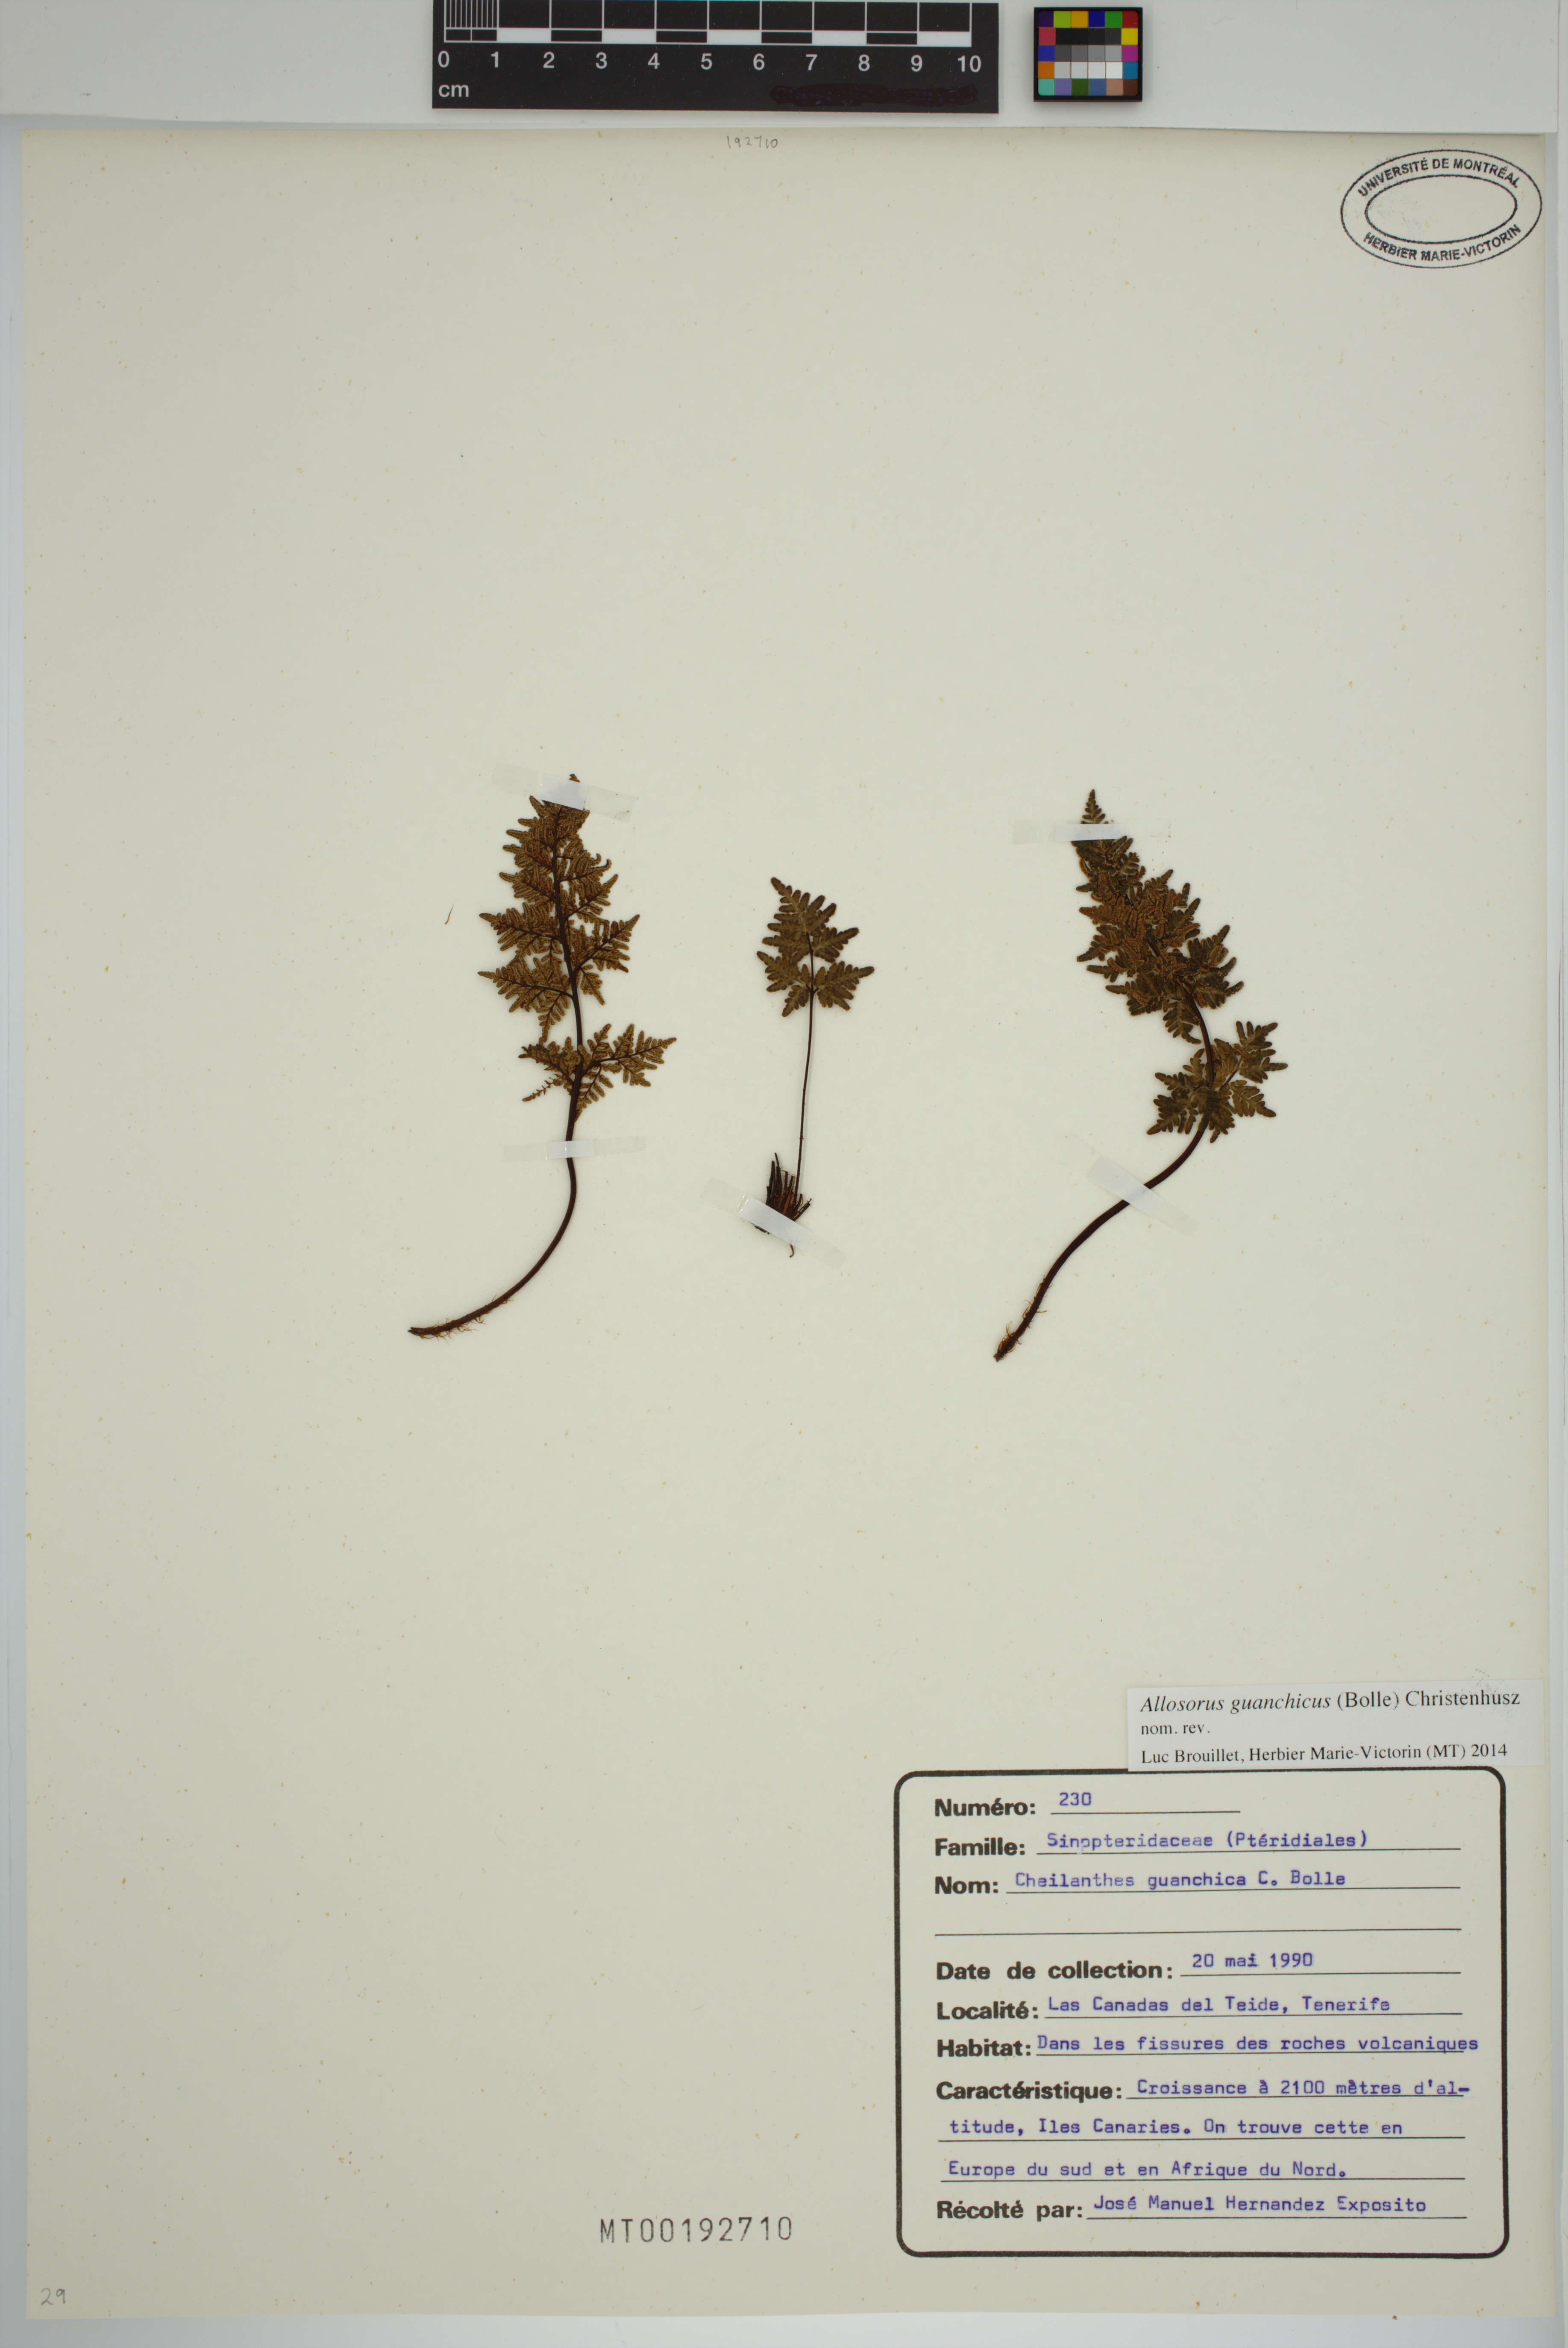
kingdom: Plantae
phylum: Tracheophyta
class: Polypodiopsida
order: Polypodiales
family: Pteridaceae
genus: Oeosporangium
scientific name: Oeosporangium guanchicum
